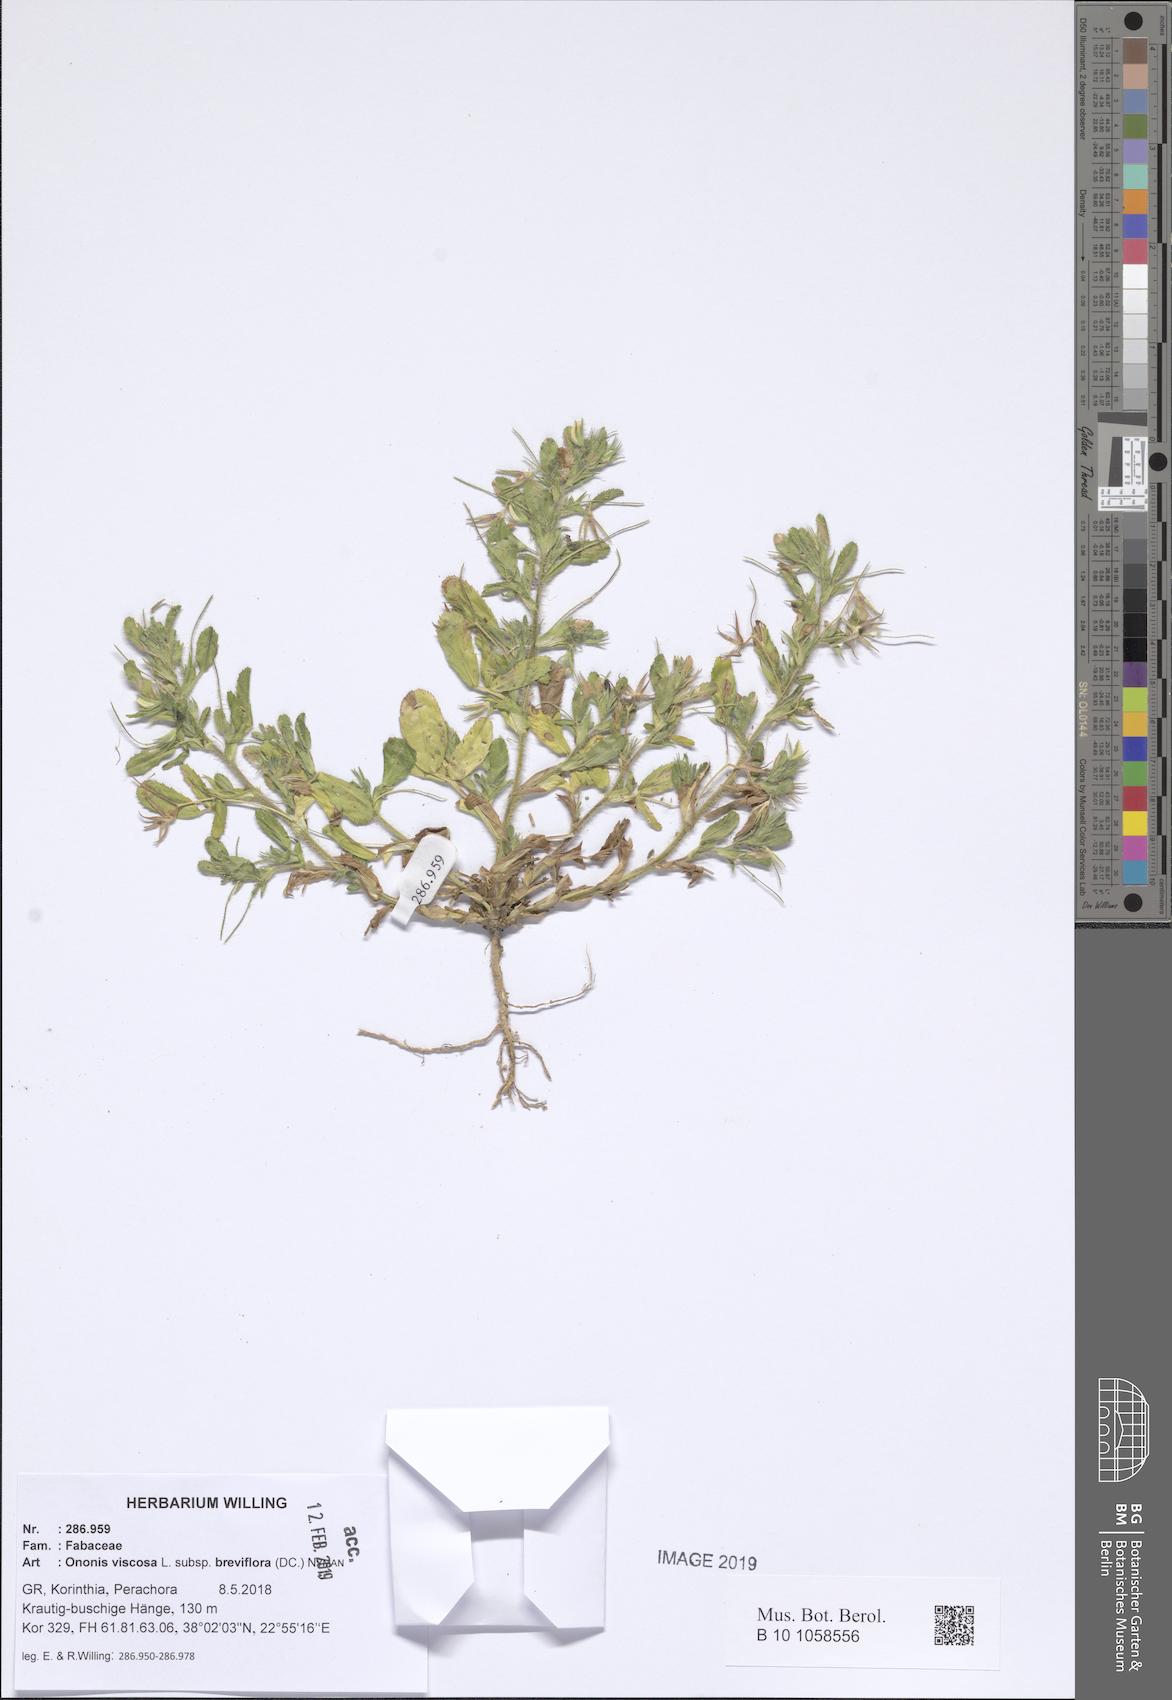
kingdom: Plantae
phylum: Tracheophyta
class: Magnoliopsida
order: Fabales
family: Fabaceae
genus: Ononis
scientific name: Ononis viscosa
